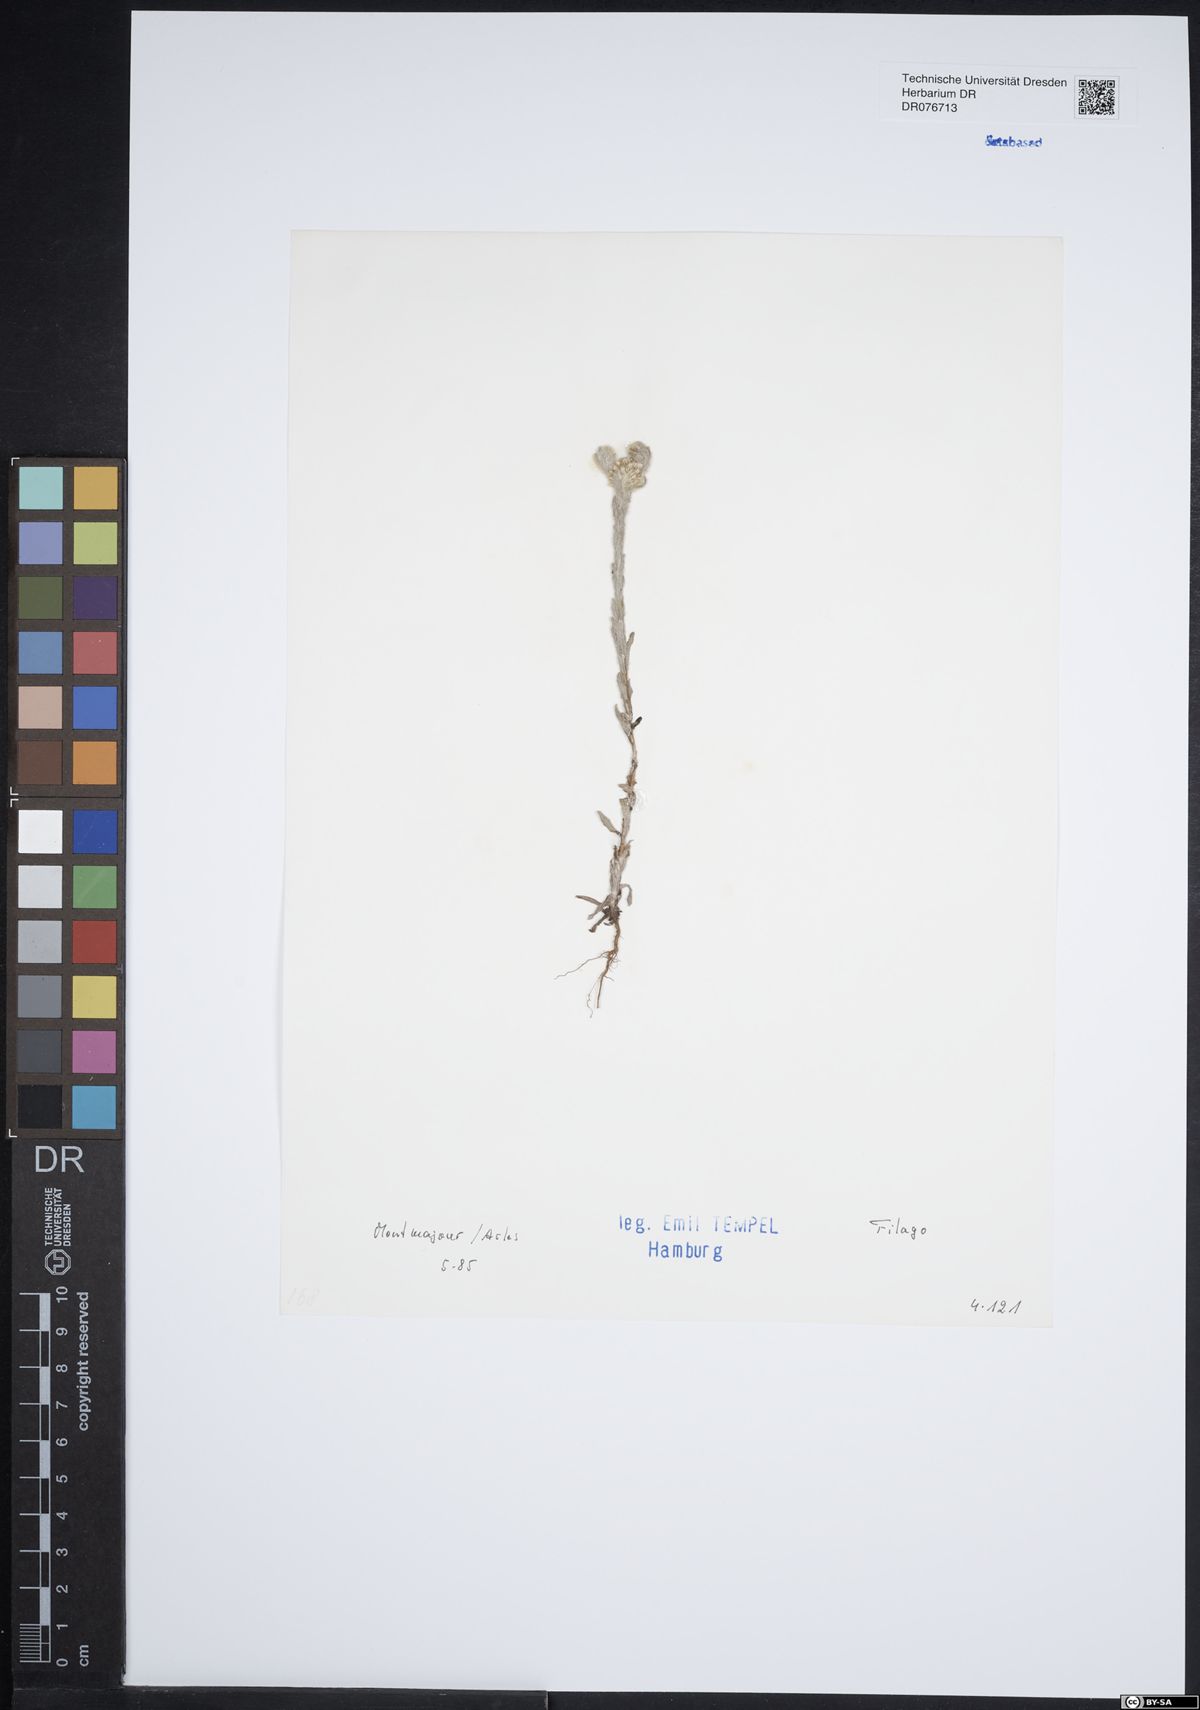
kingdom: Plantae
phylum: Tracheophyta
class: Magnoliopsida
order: Asterales
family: Asteraceae
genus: Filago
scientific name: Filago
